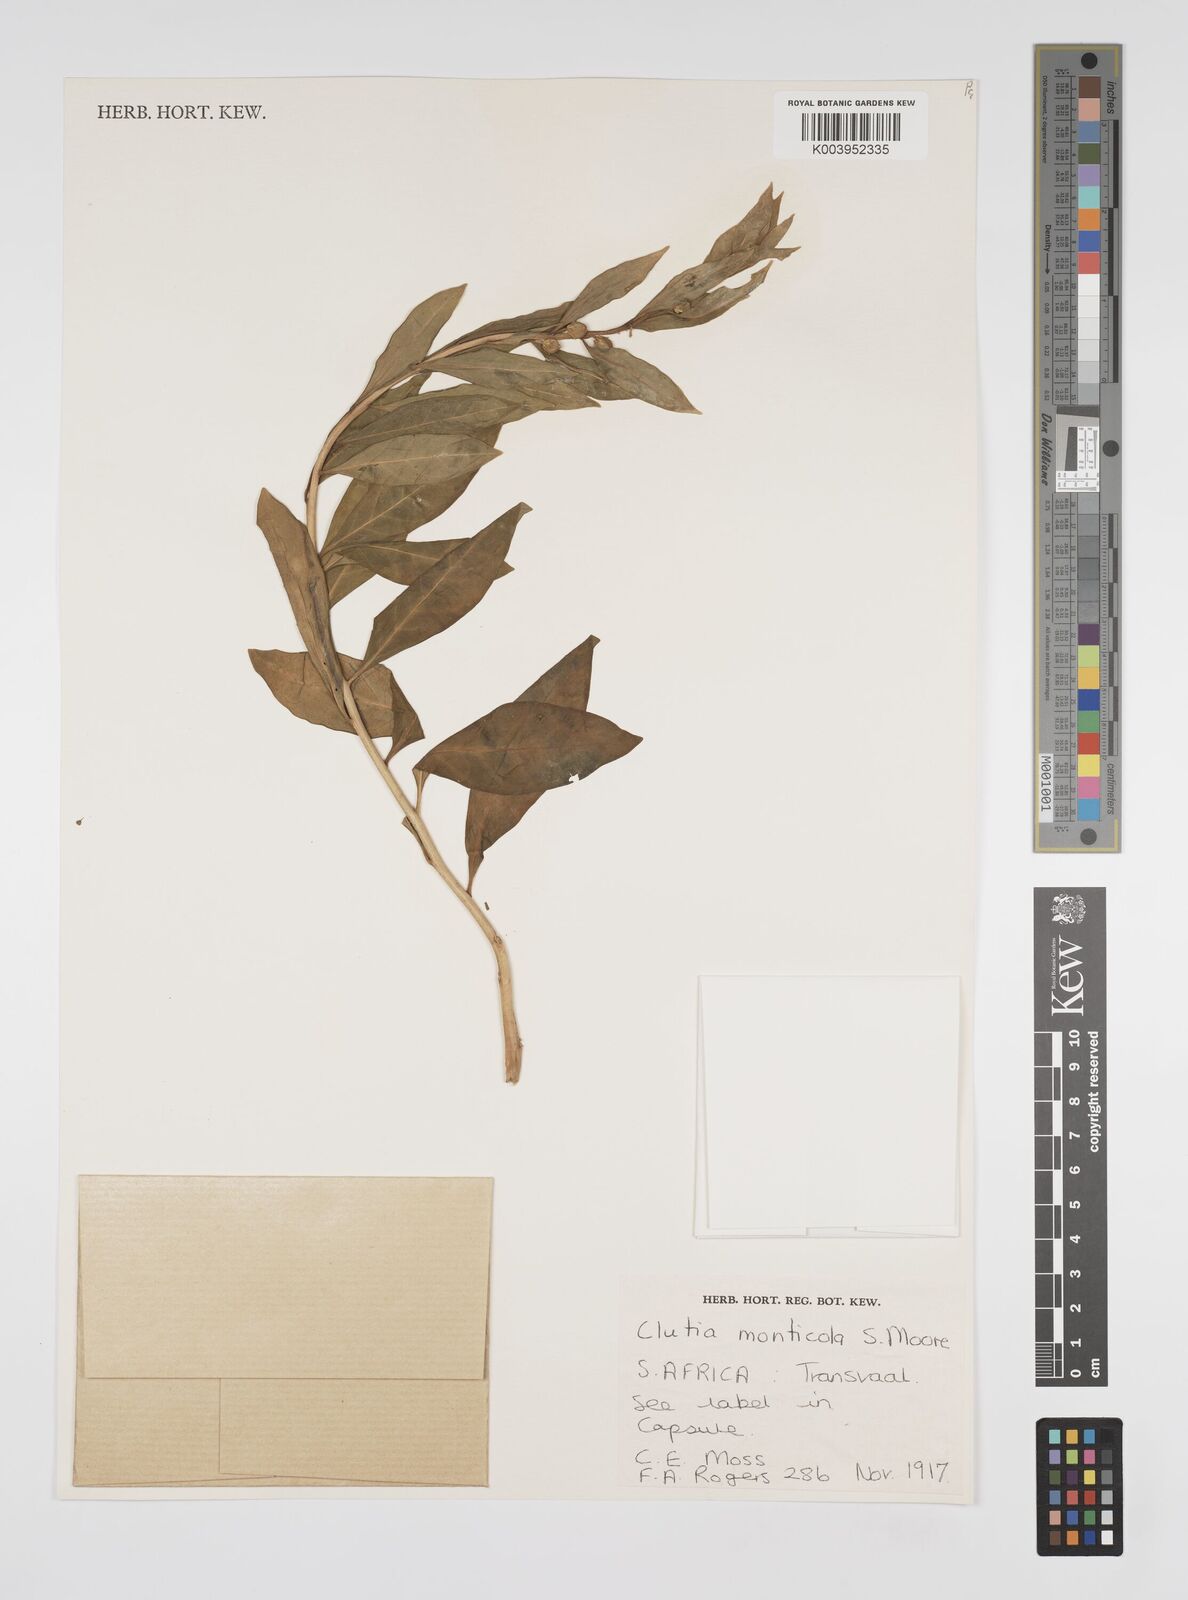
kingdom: Plantae
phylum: Tracheophyta
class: Magnoliopsida
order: Malpighiales
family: Peraceae
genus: Clutia
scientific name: Clutia monticola
